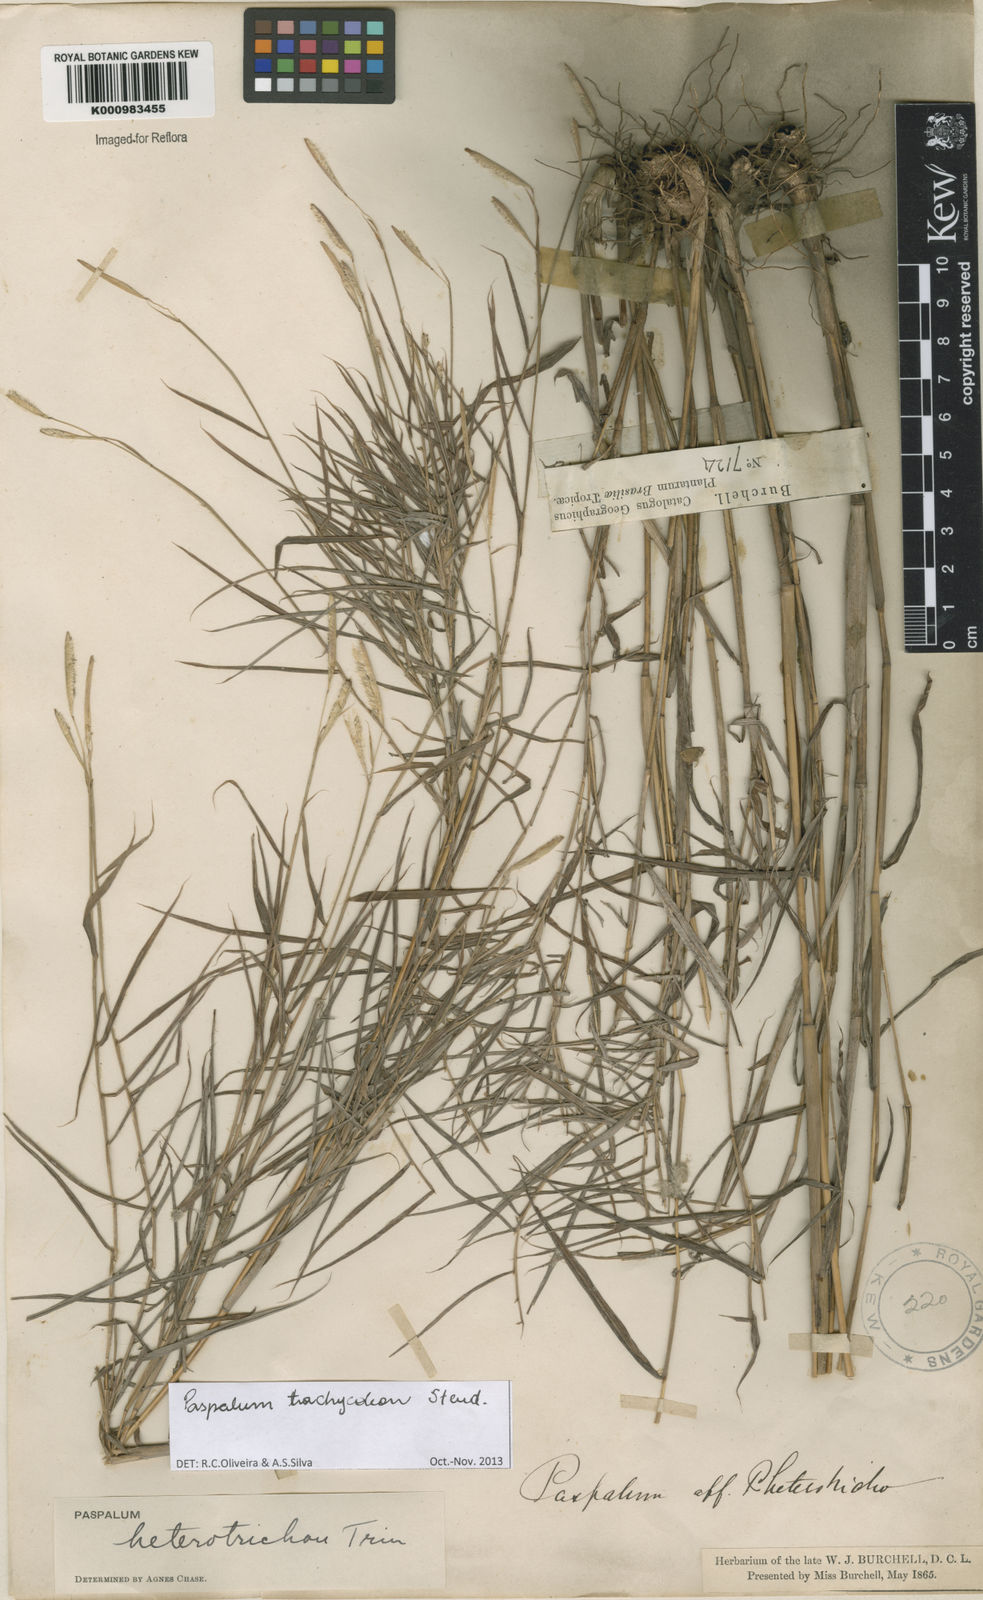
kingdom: Plantae
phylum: Tracheophyta
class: Liliopsida
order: Poales
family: Poaceae
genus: Paspalum
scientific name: Paspalum trachycoleon
